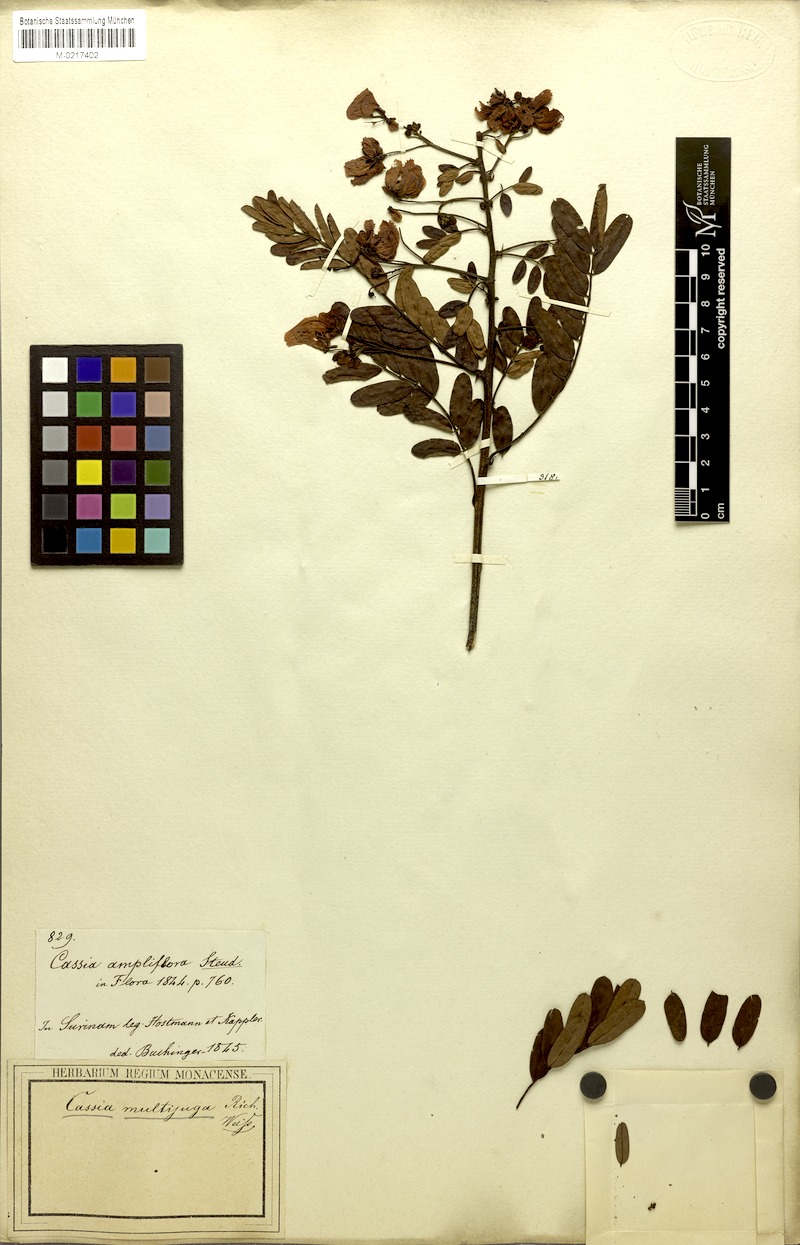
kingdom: Plantae
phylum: Tracheophyta
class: Magnoliopsida
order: Fabales
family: Fabaceae
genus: Senna
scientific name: Senna multijuga
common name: False sicklepod
